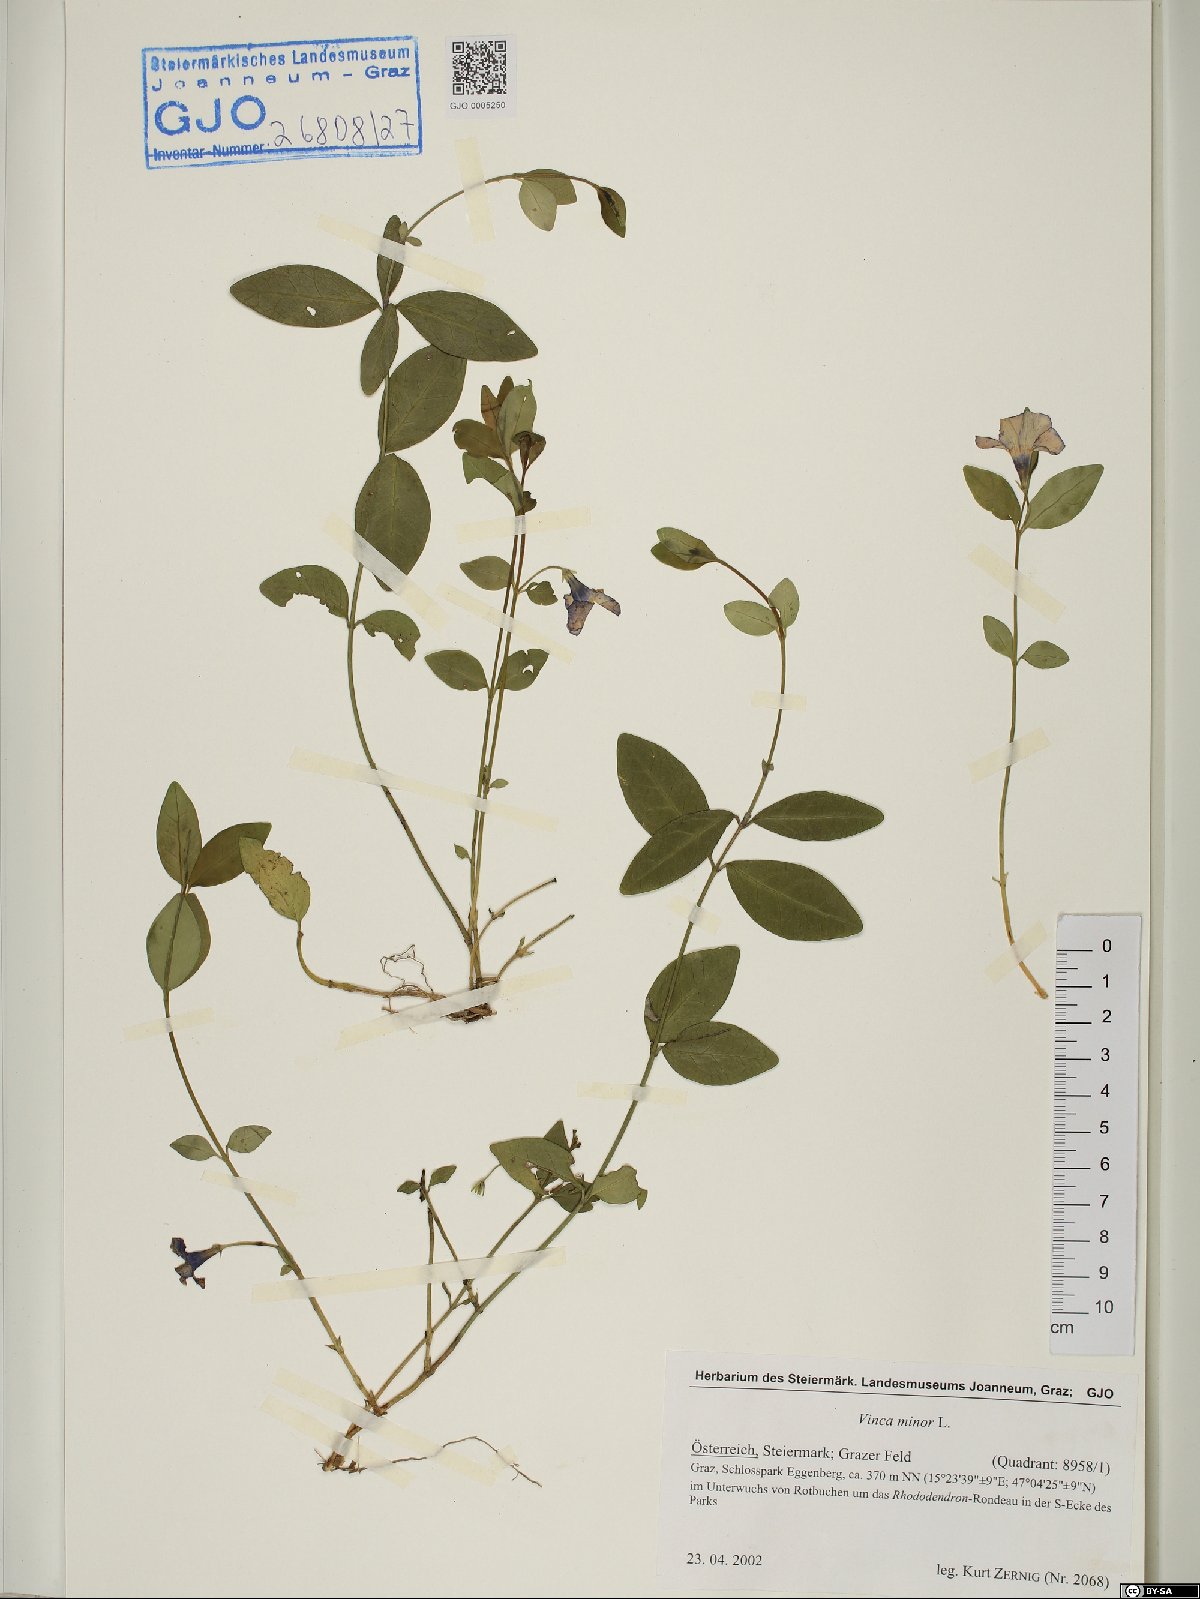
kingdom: Plantae
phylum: Tracheophyta
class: Magnoliopsida
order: Gentianales
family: Apocynaceae
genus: Vinca
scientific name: Vinca minor
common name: Lesser periwinkle
